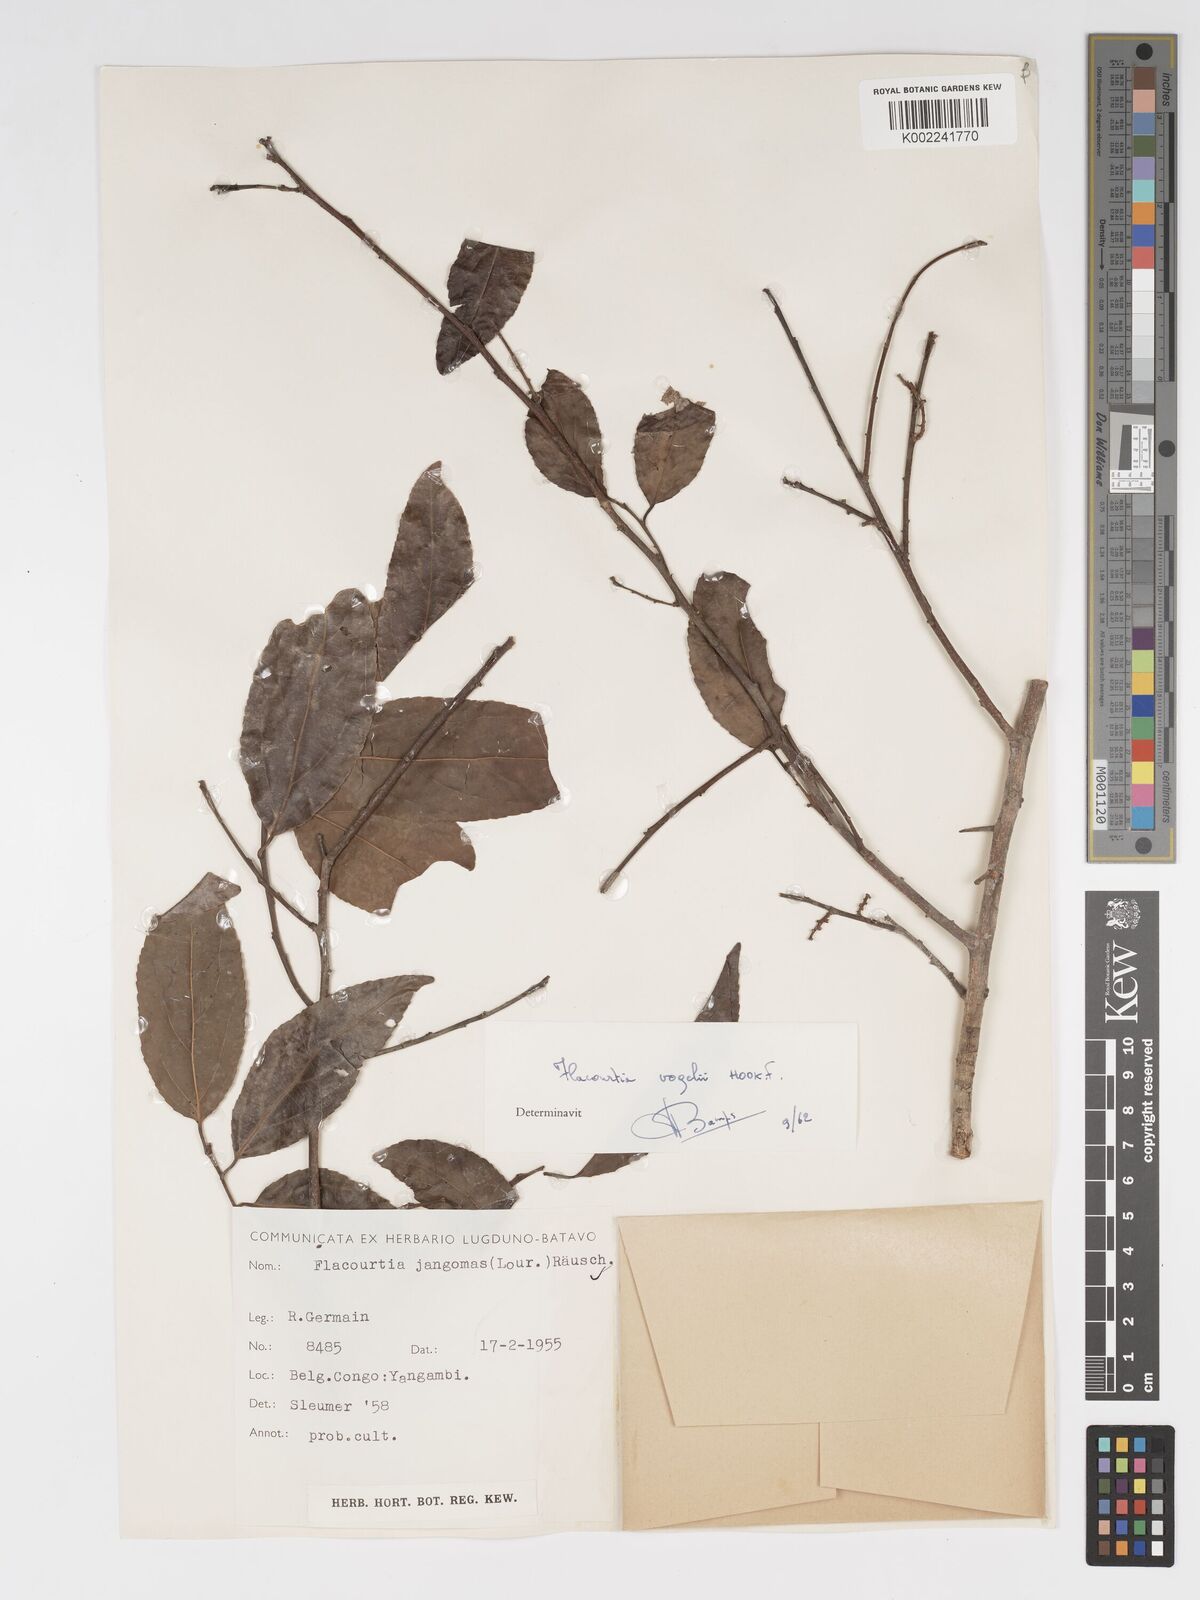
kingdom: Plantae
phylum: Tracheophyta
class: Magnoliopsida
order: Malpighiales
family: Salicaceae
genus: Flacourtia
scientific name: Flacourtia vogelii
